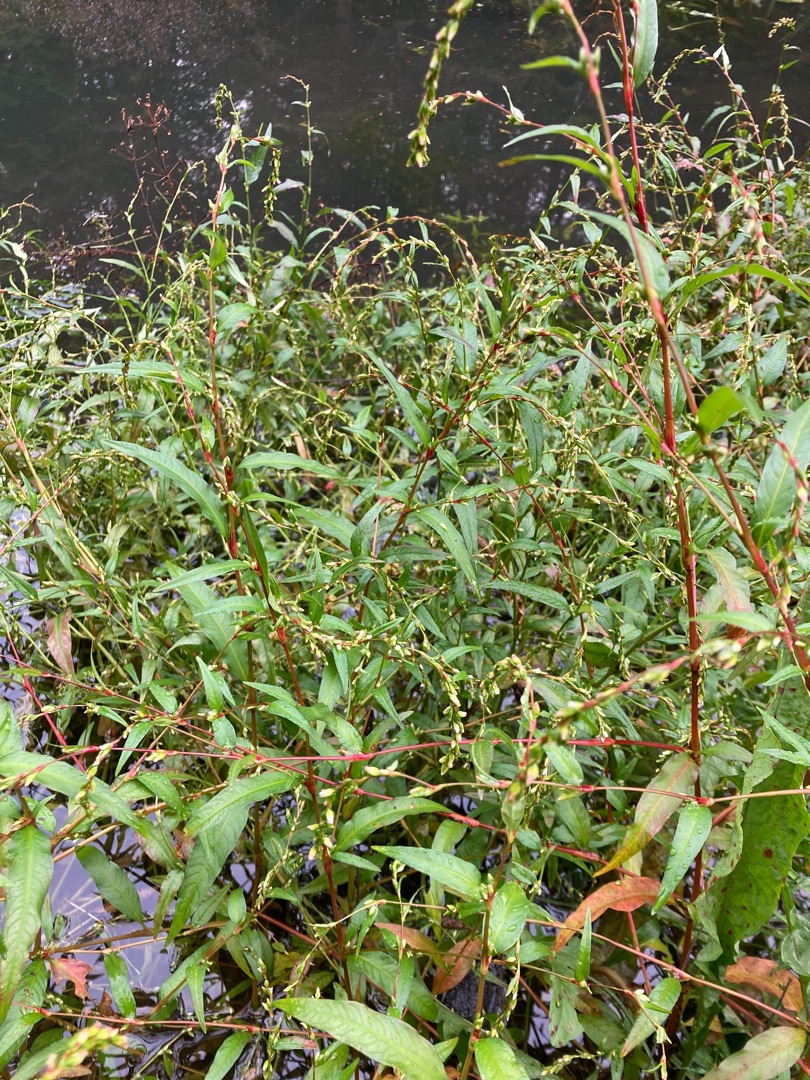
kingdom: Plantae
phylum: Tracheophyta
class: Magnoliopsida
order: Caryophyllales
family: Polygonaceae
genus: Persicaria
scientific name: Persicaria hydropiper
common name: Bidende pileurt
